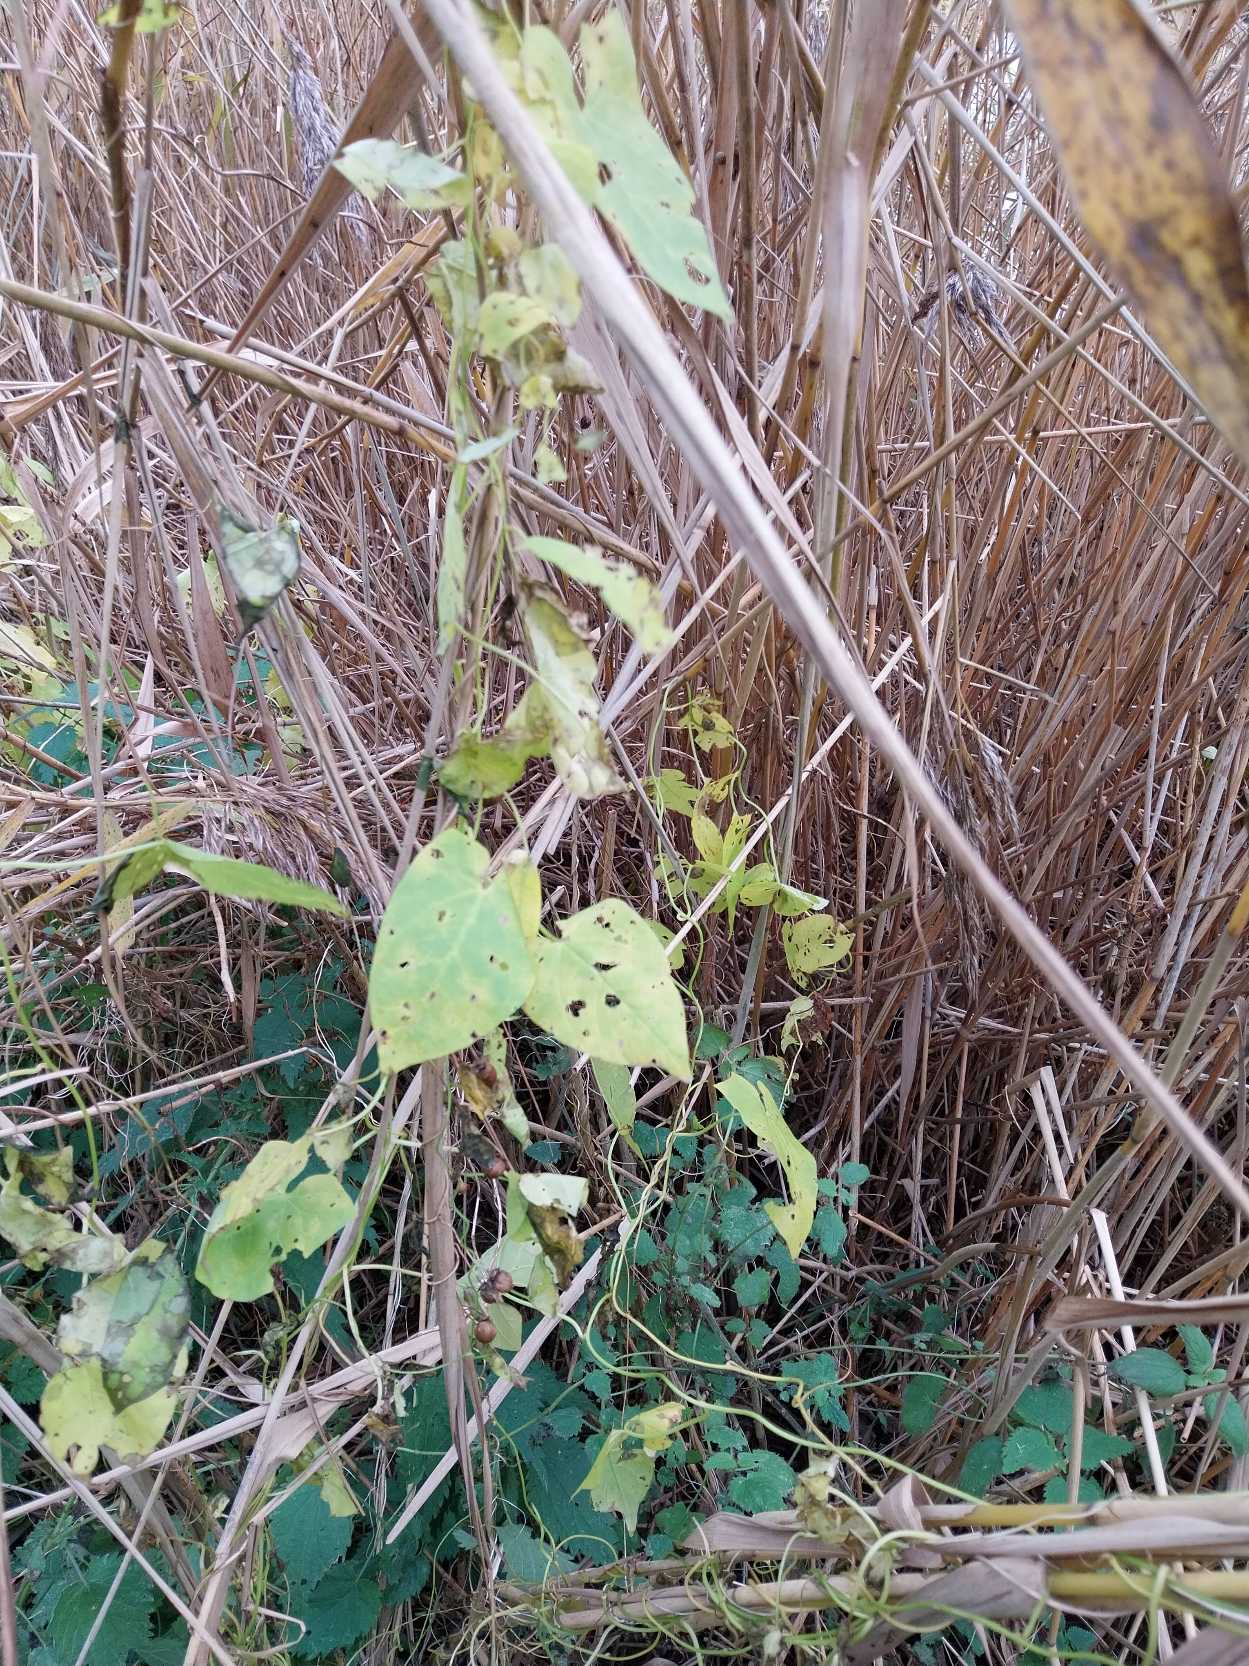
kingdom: Plantae
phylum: Tracheophyta
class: Magnoliopsida
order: Solanales
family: Convolvulaceae
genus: Calystegia
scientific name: Calystegia sepium
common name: Gærde-snerle
